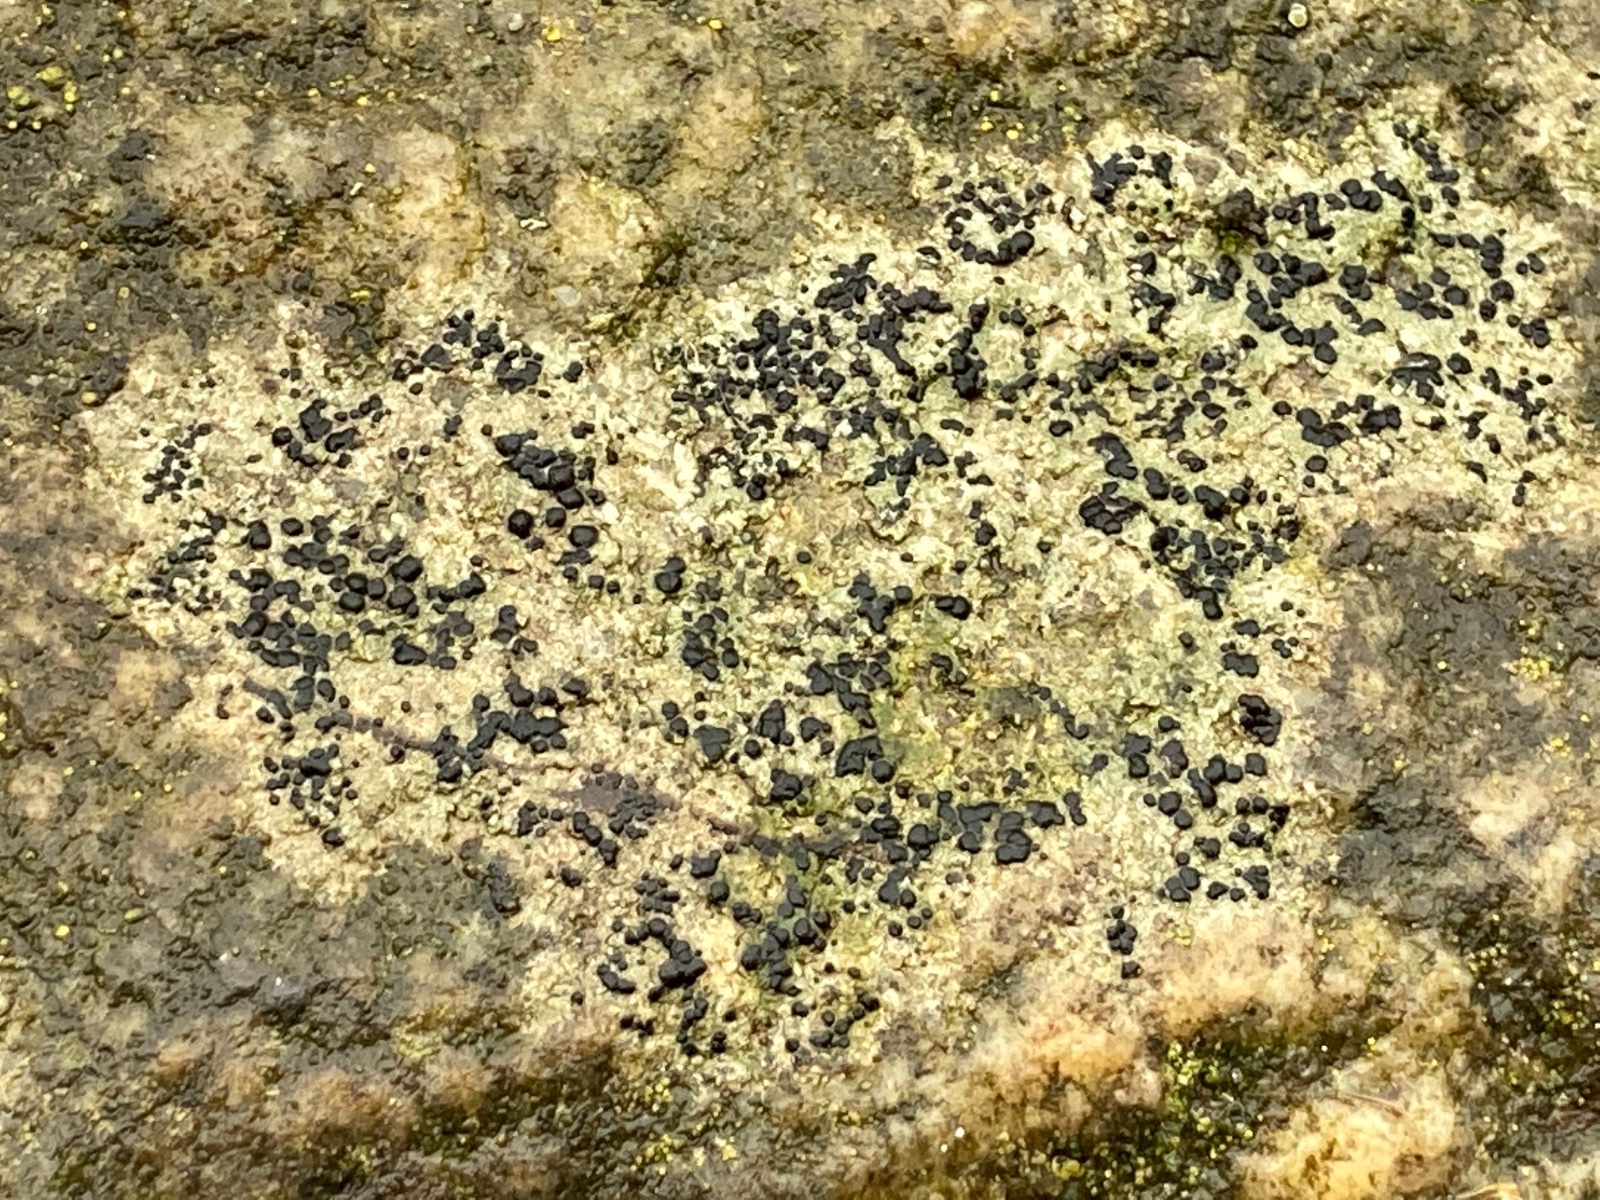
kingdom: Fungi
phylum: Ascomycota
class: Lecanoromycetes
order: Lecanorales
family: Lecanoraceae
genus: Lecidella
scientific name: Lecidella scabra
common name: skurvet skivelav
